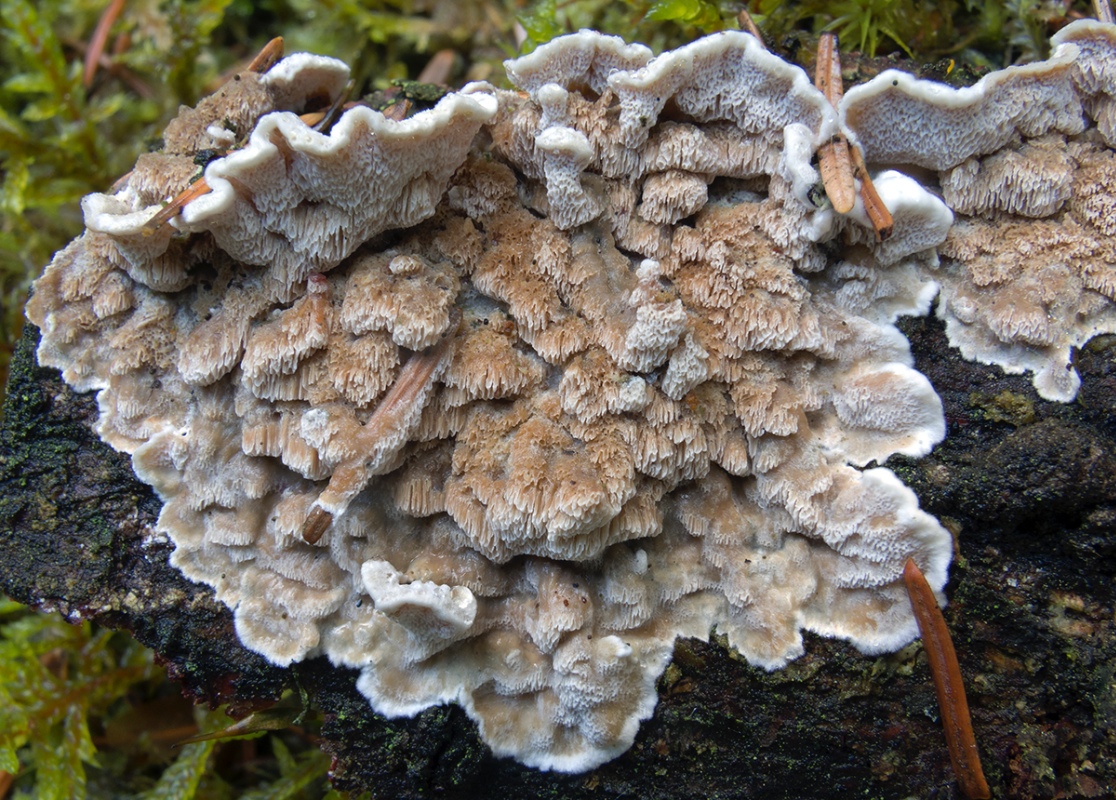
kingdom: Fungi
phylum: Basidiomycota
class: Agaricomycetes
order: Polyporales
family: Incrustoporiaceae
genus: Skeletocutis
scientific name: Skeletocutis carneogrisea
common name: rødgrå krystalporesvamp
